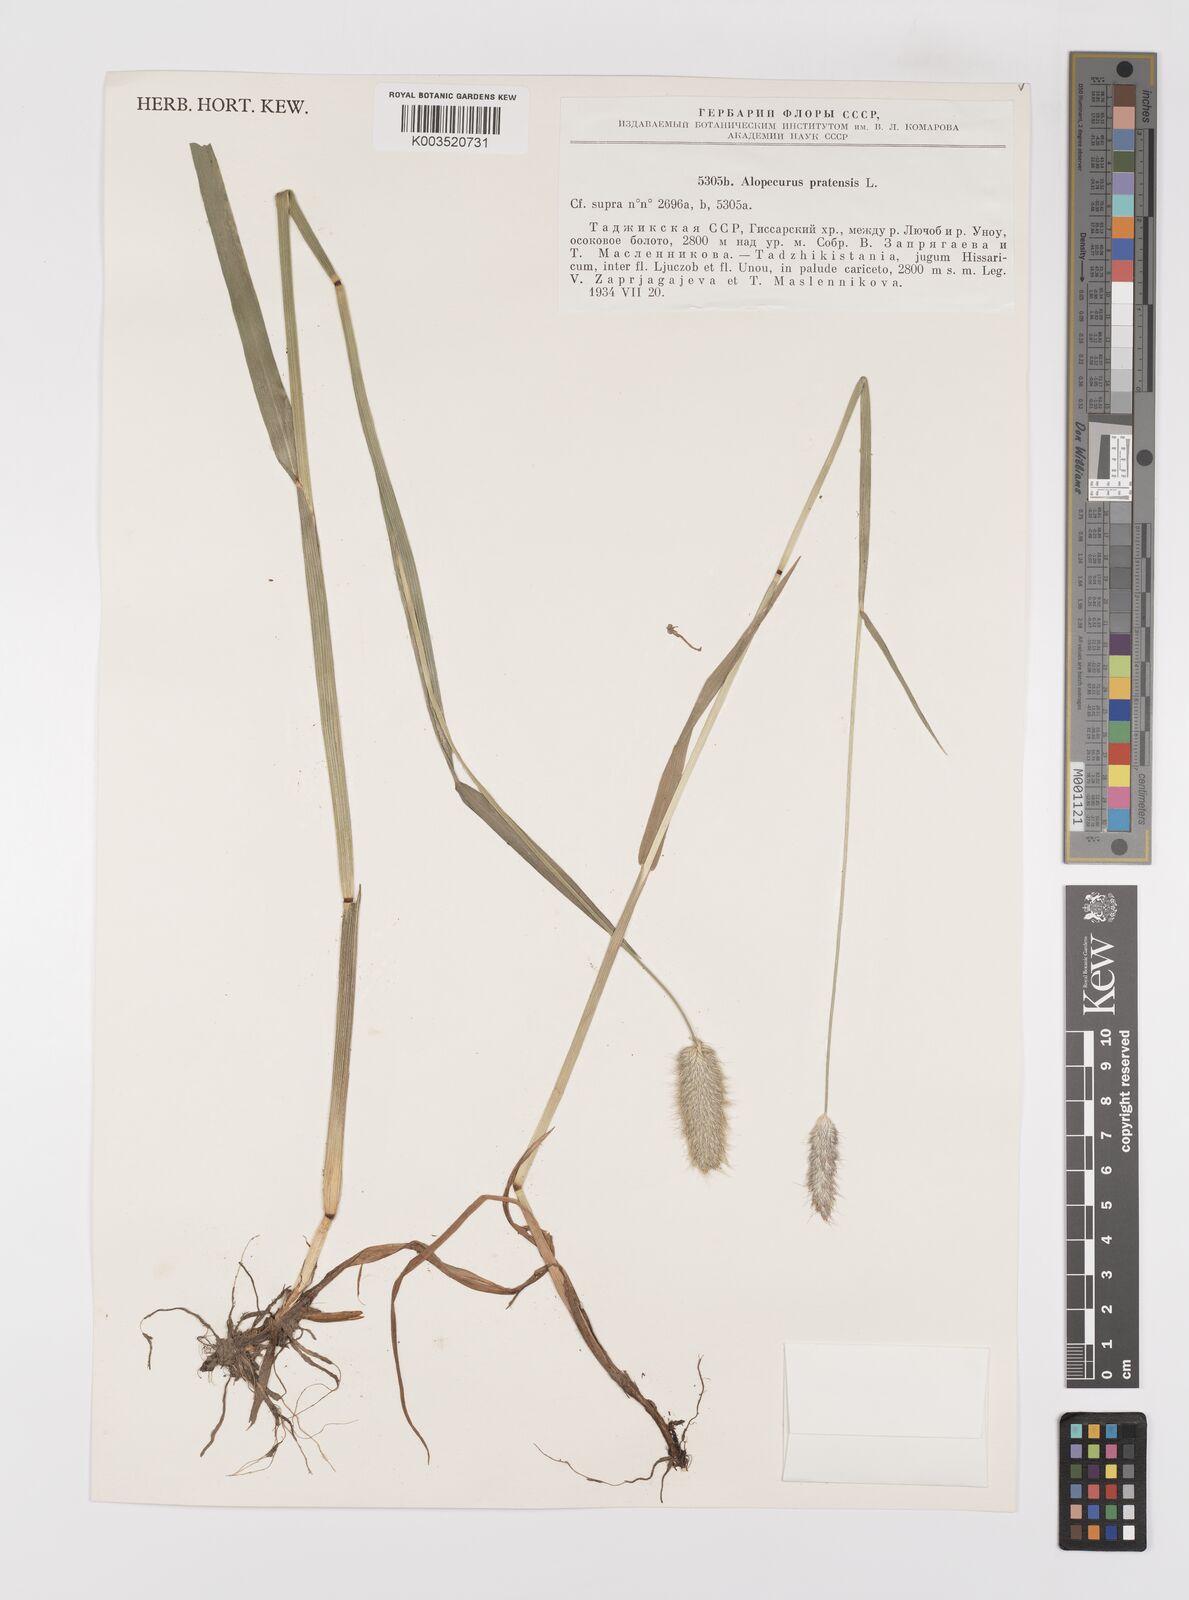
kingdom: Plantae
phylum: Tracheophyta
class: Liliopsida
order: Poales
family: Poaceae
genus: Alopecurus
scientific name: Alopecurus pratensis
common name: Meadow foxtail
